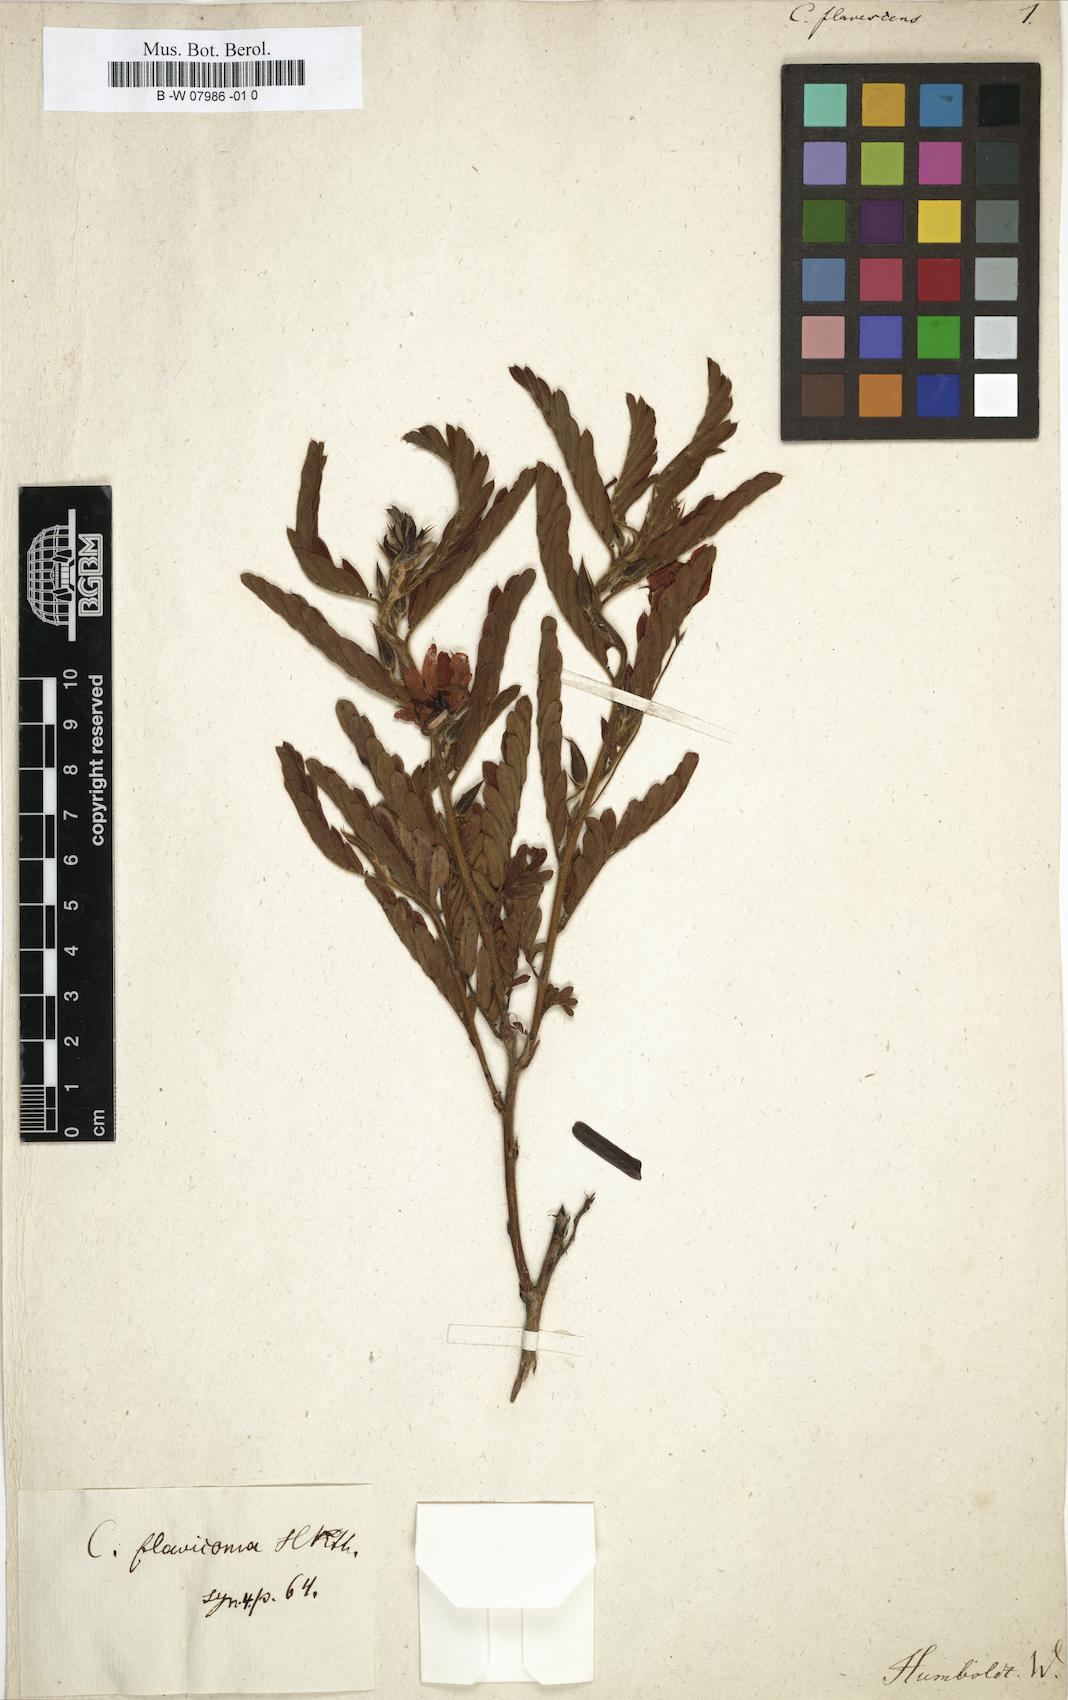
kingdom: Plantae
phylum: Tracheophyta
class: Magnoliopsida
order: Fabales
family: Fabaceae
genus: Cassia
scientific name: Cassia
